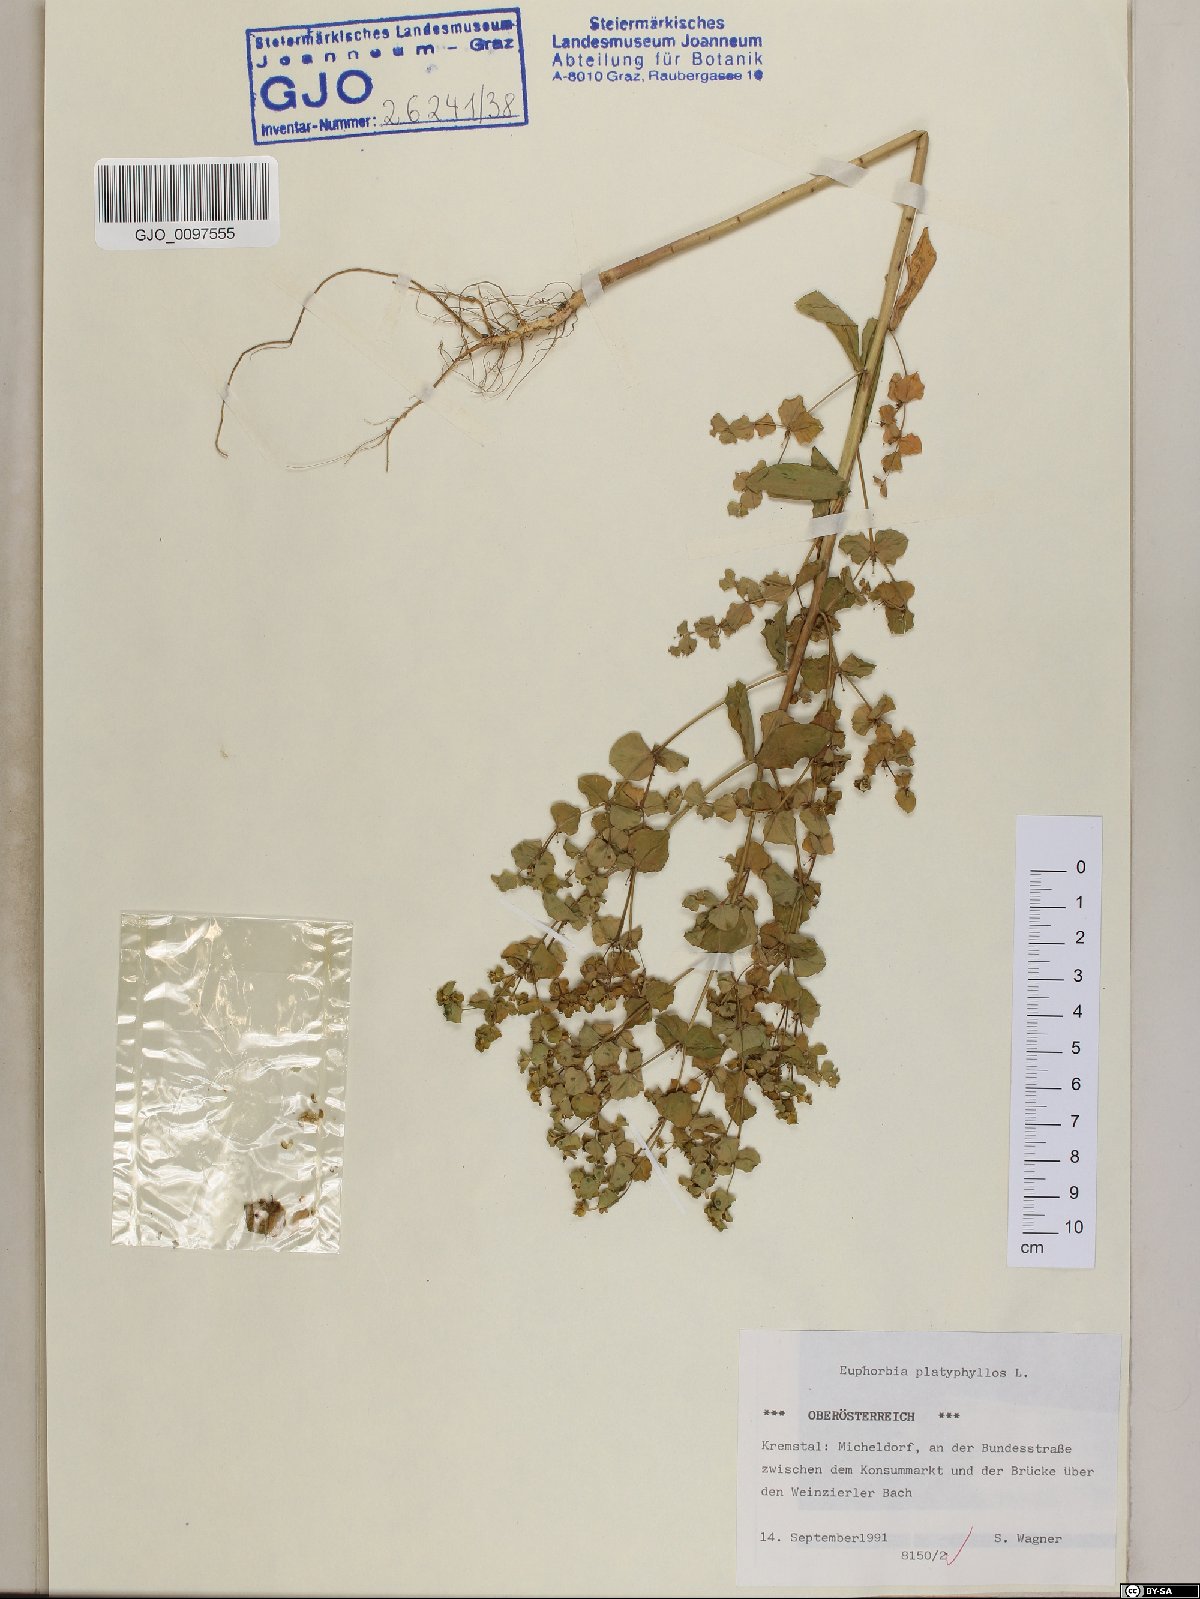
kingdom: Plantae
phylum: Tracheophyta
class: Magnoliopsida
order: Malpighiales
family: Euphorbiaceae
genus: Euphorbia
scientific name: Euphorbia platyphyllos
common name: Broad-leaved spurge
